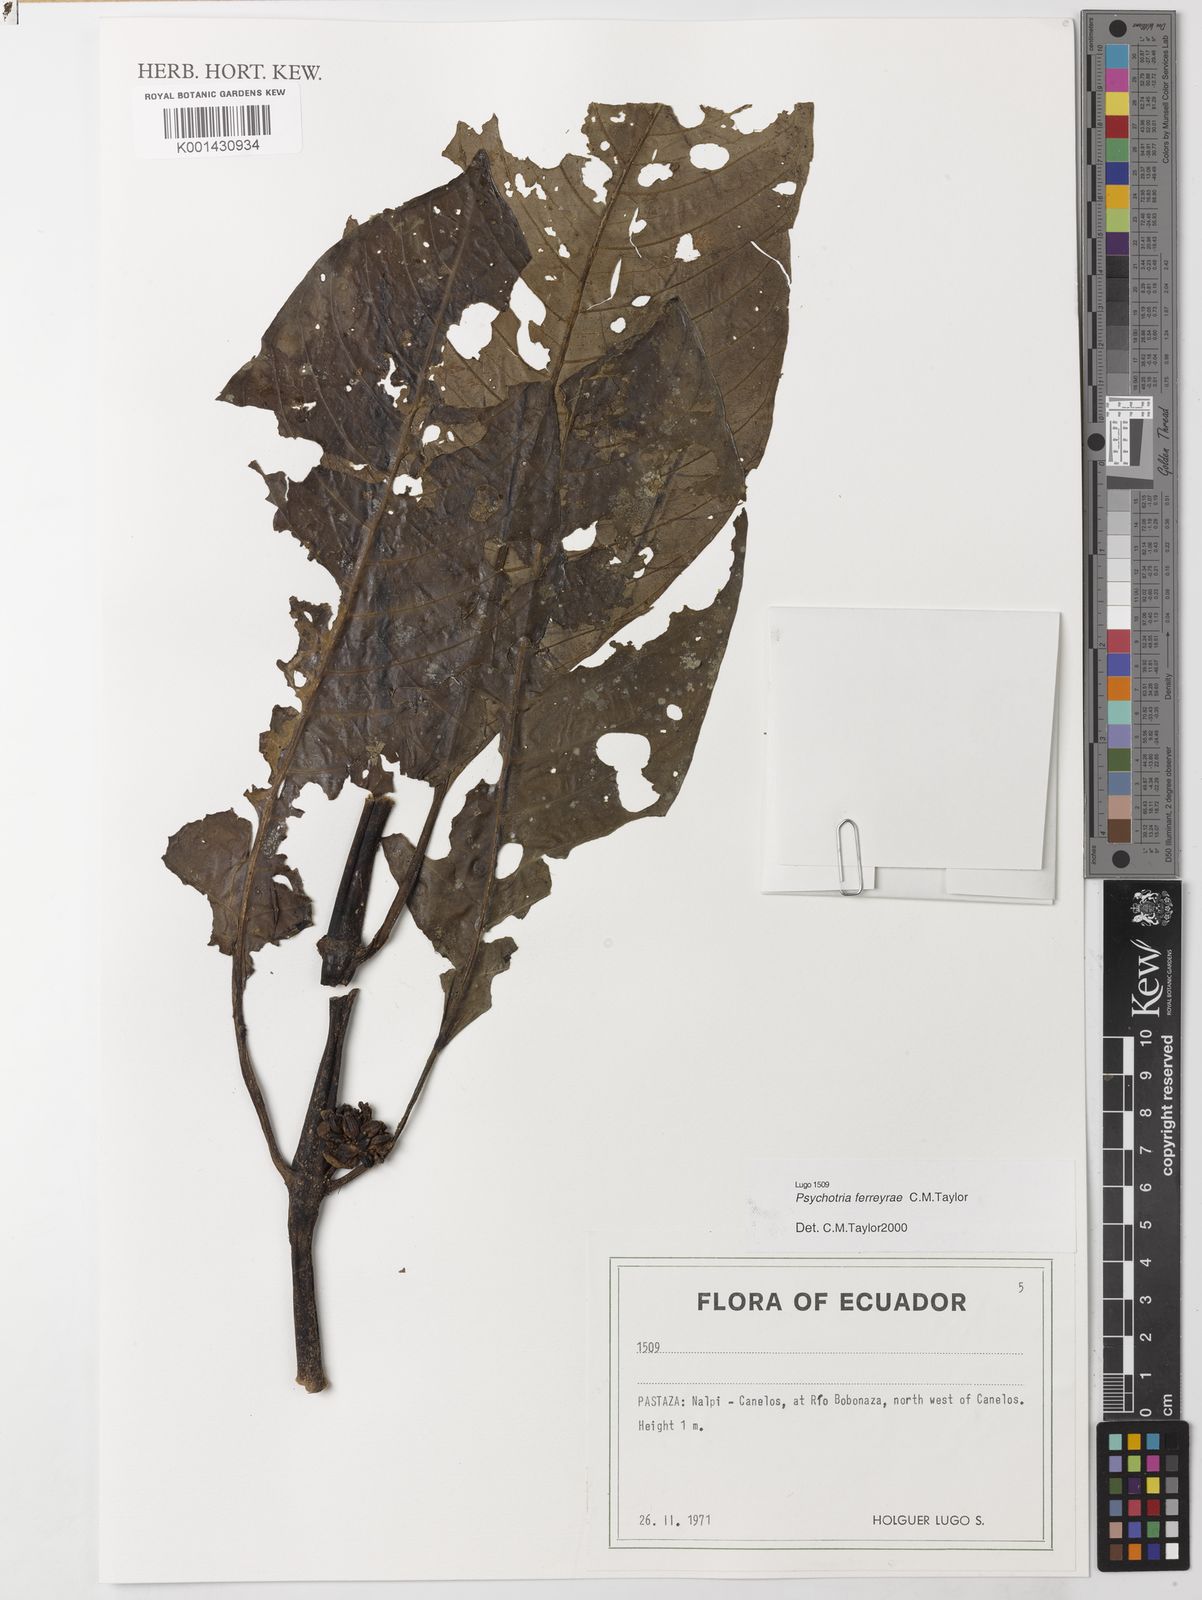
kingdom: Plantae
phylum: Tracheophyta
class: Magnoliopsida
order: Gentianales
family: Rubiaceae
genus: Notopleura
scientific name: Notopleura leucantha
